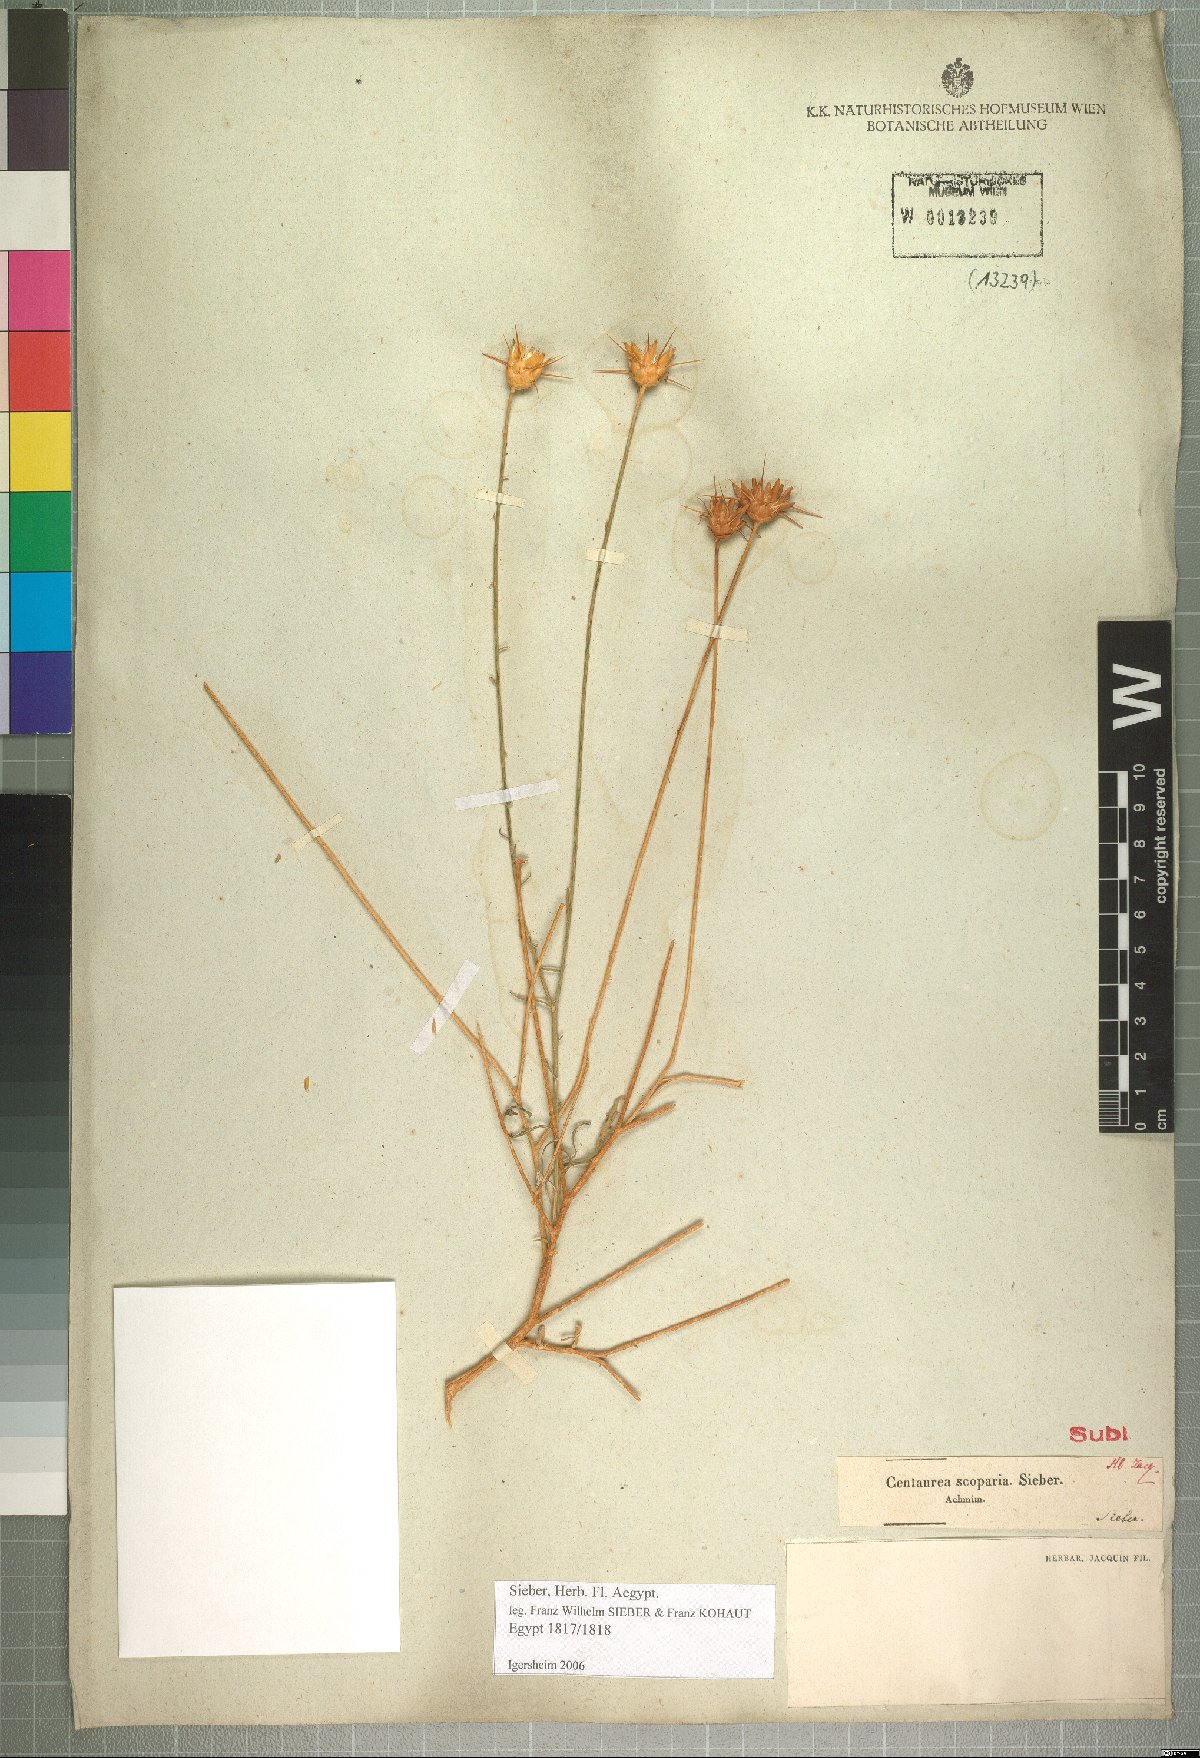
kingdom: Plantae
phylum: Tracheophyta
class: Magnoliopsida
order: Asterales
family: Asteraceae
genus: Centaurea
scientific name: Centaurea scoparia
